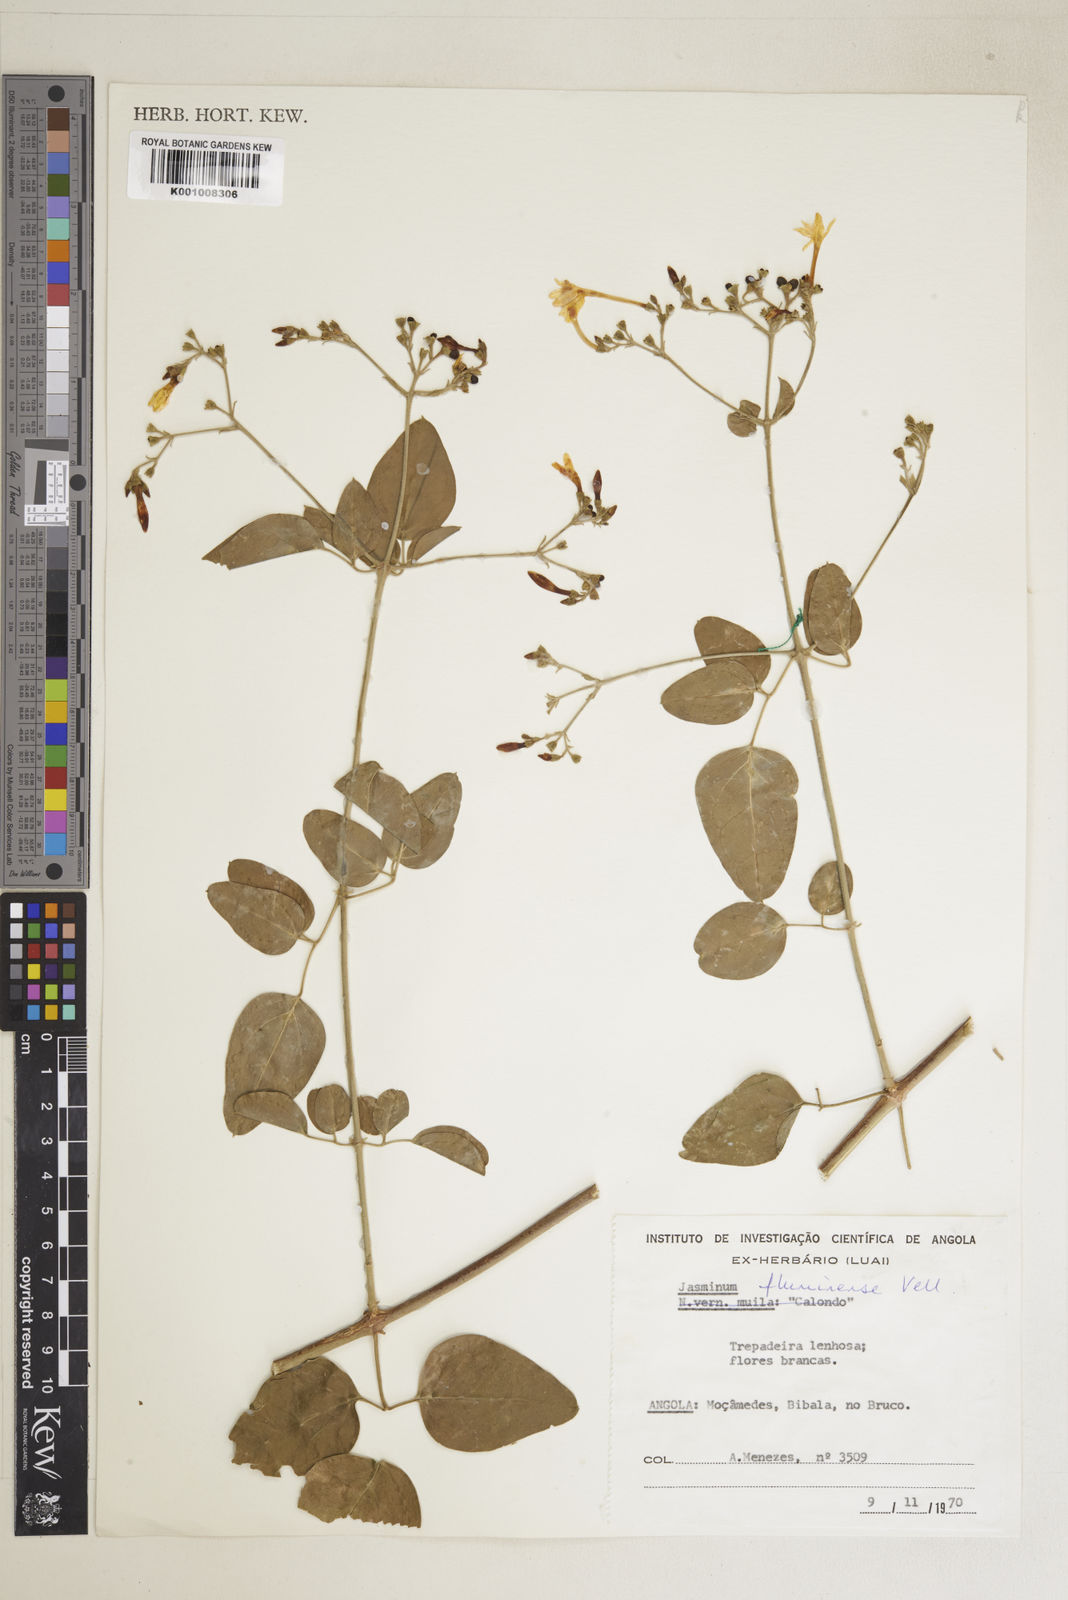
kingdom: Plantae
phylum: Tracheophyta
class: Magnoliopsida
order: Lamiales
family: Oleaceae
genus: Jasminum
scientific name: Jasminum fluminense
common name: Brazilian jasmine
